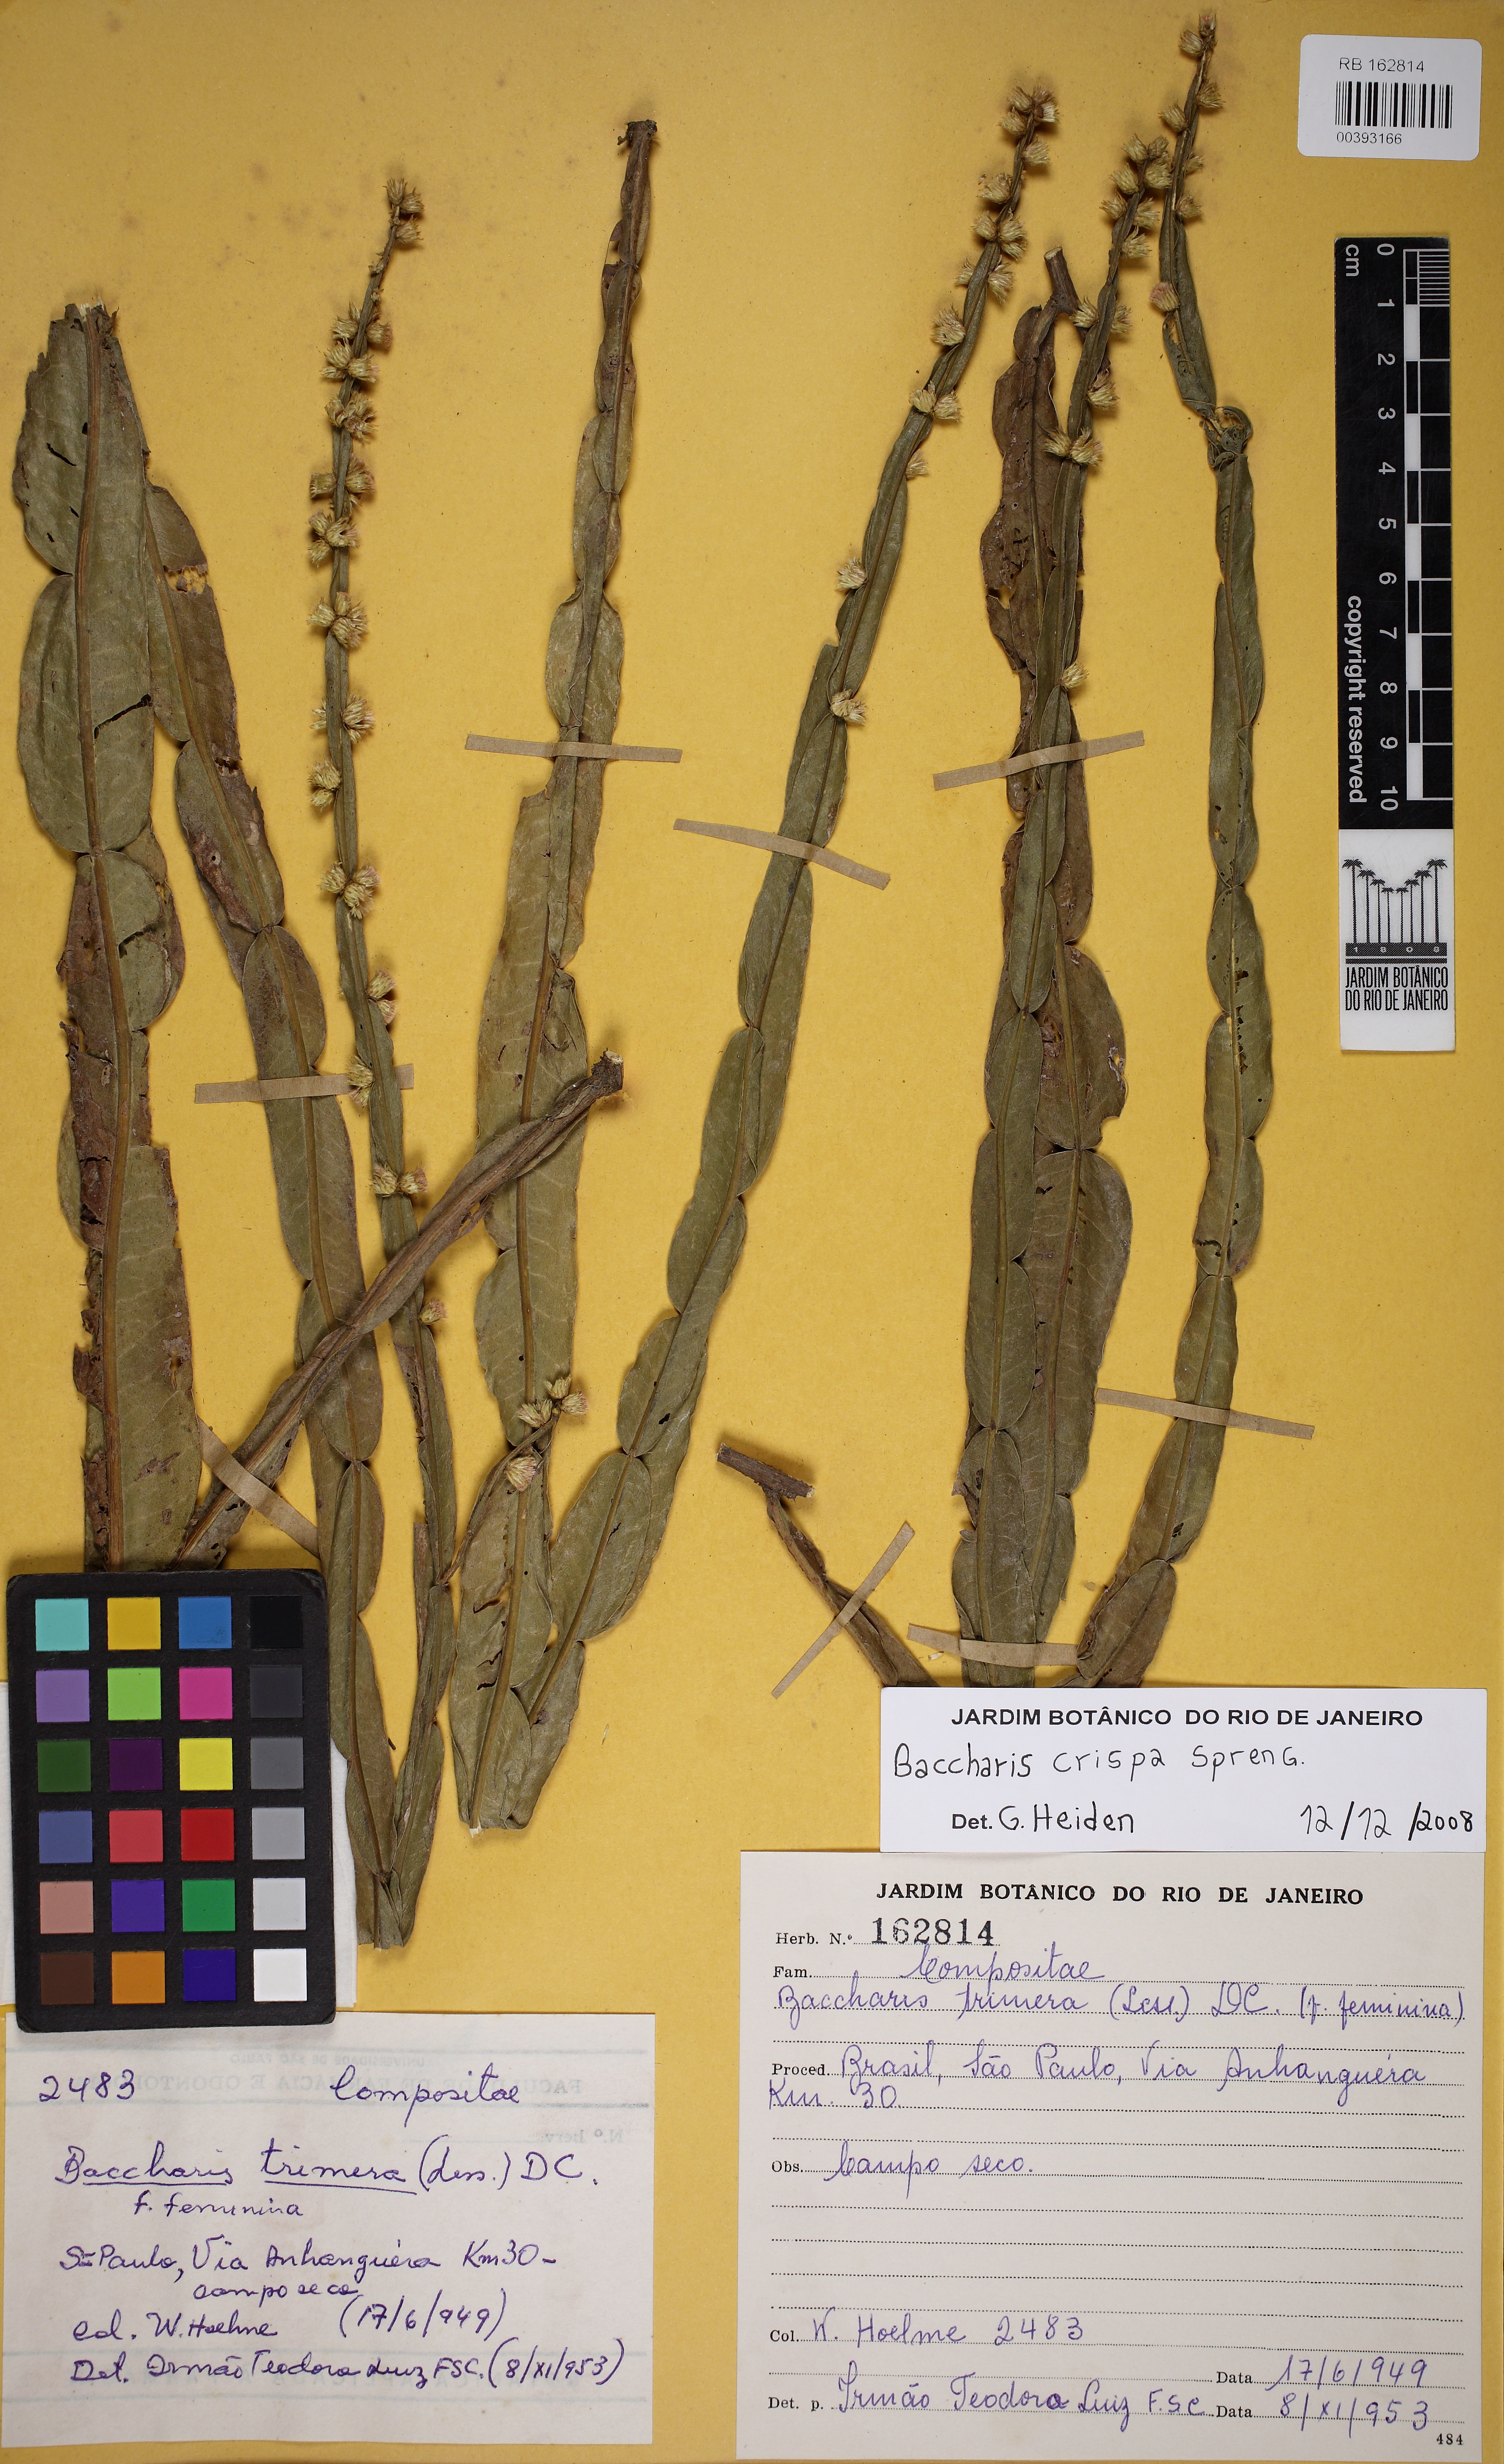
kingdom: Plantae
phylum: Tracheophyta
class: Magnoliopsida
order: Asterales
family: Asteraceae
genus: Baccharis
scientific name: Baccharis crispa
